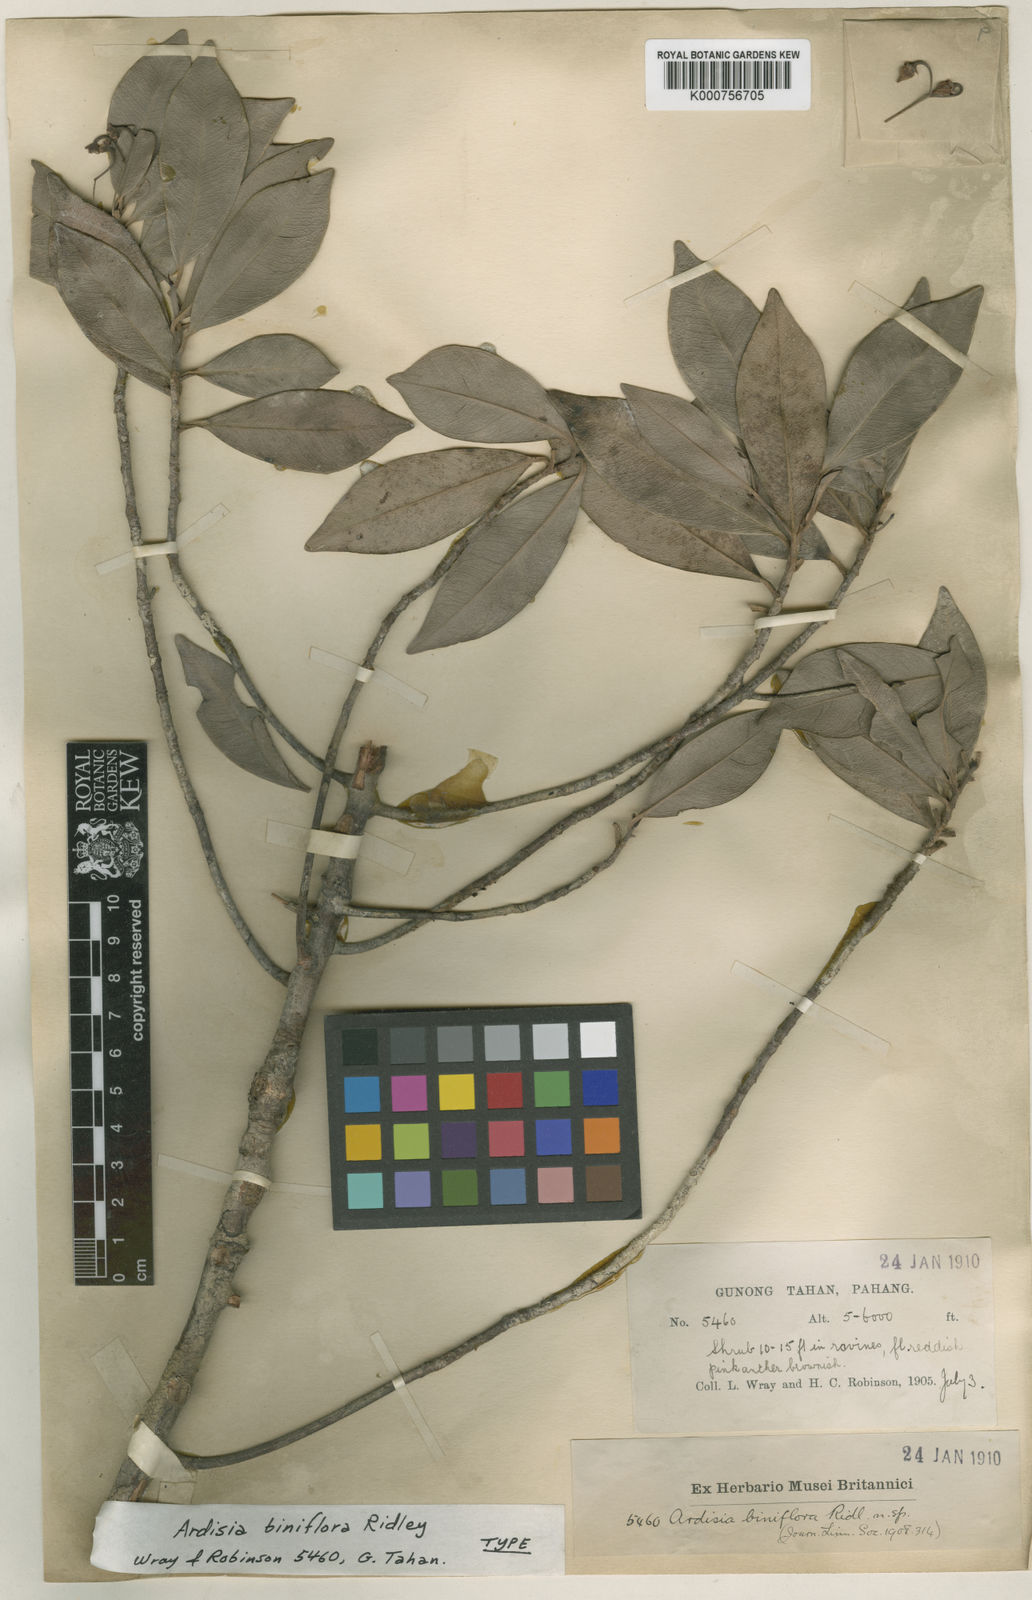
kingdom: Plantae
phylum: Tracheophyta
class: Magnoliopsida
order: Ericales
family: Primulaceae
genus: Ardisia
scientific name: Ardisia biniflora
